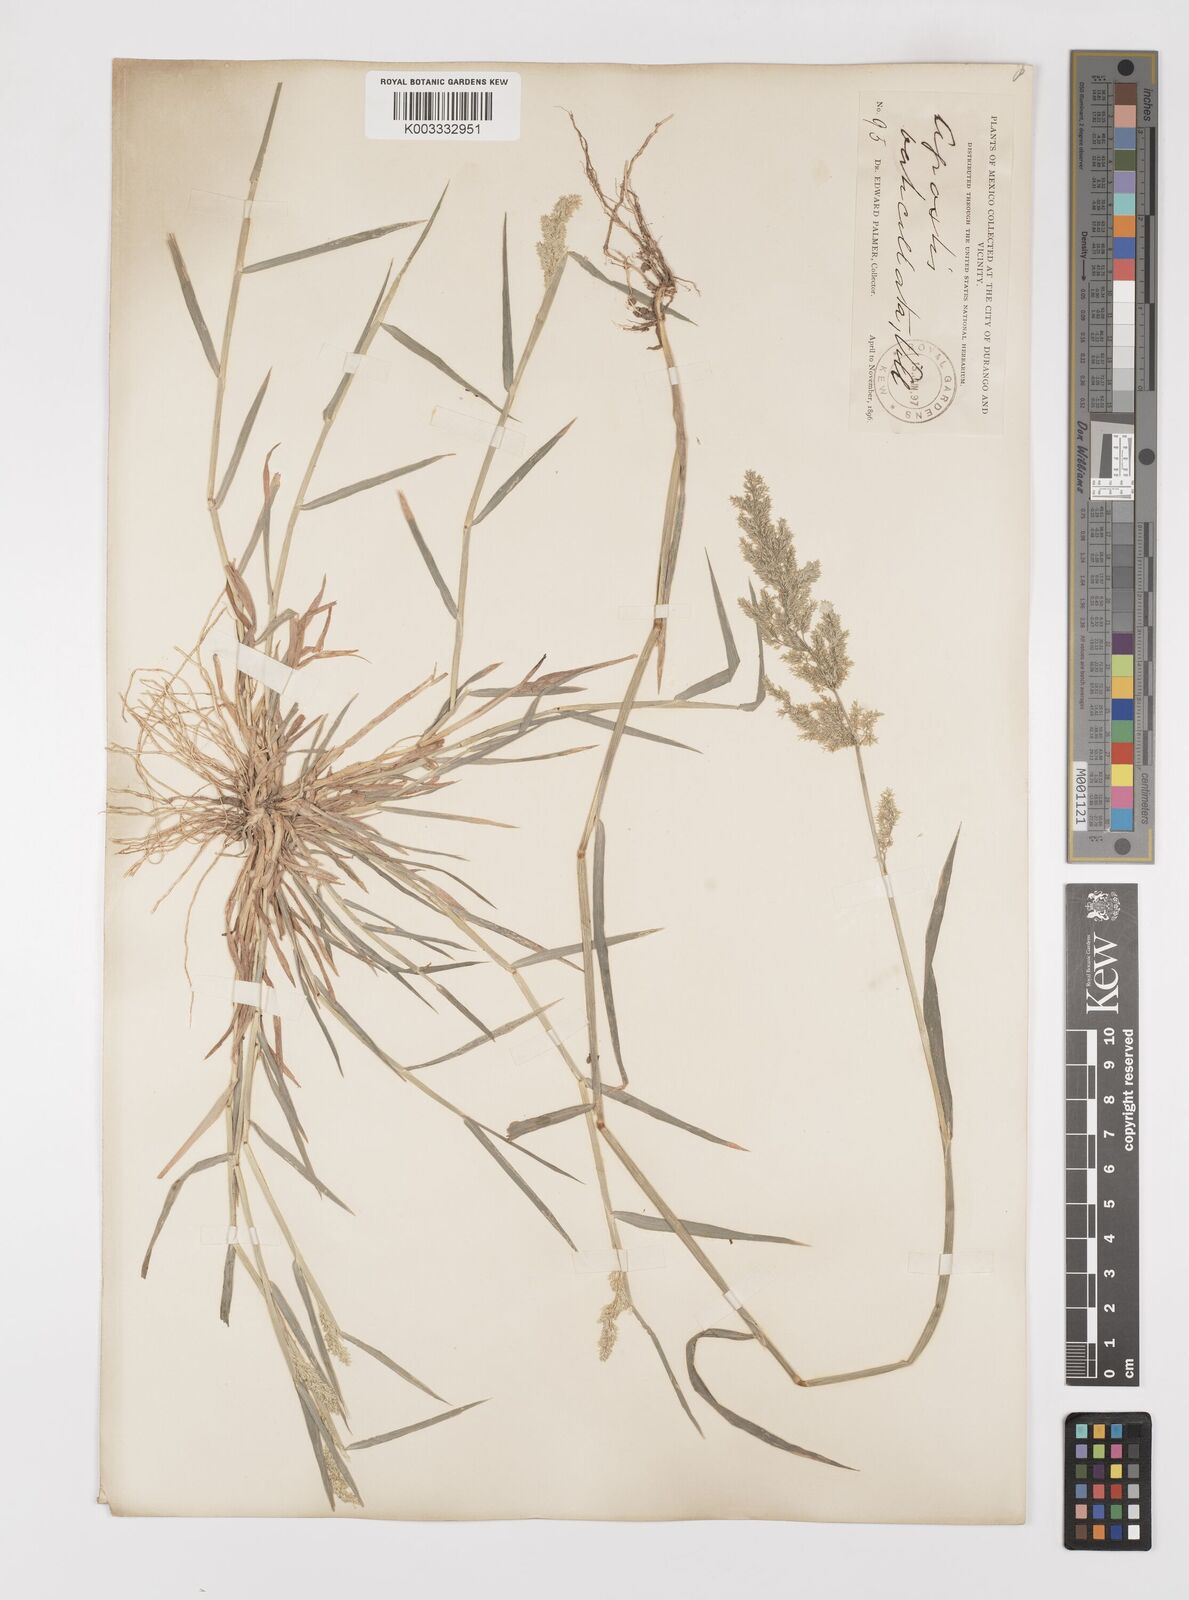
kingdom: Plantae
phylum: Tracheophyta
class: Liliopsida
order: Poales
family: Poaceae
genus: Polypogon
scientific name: Polypogon viridis
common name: Water bent
